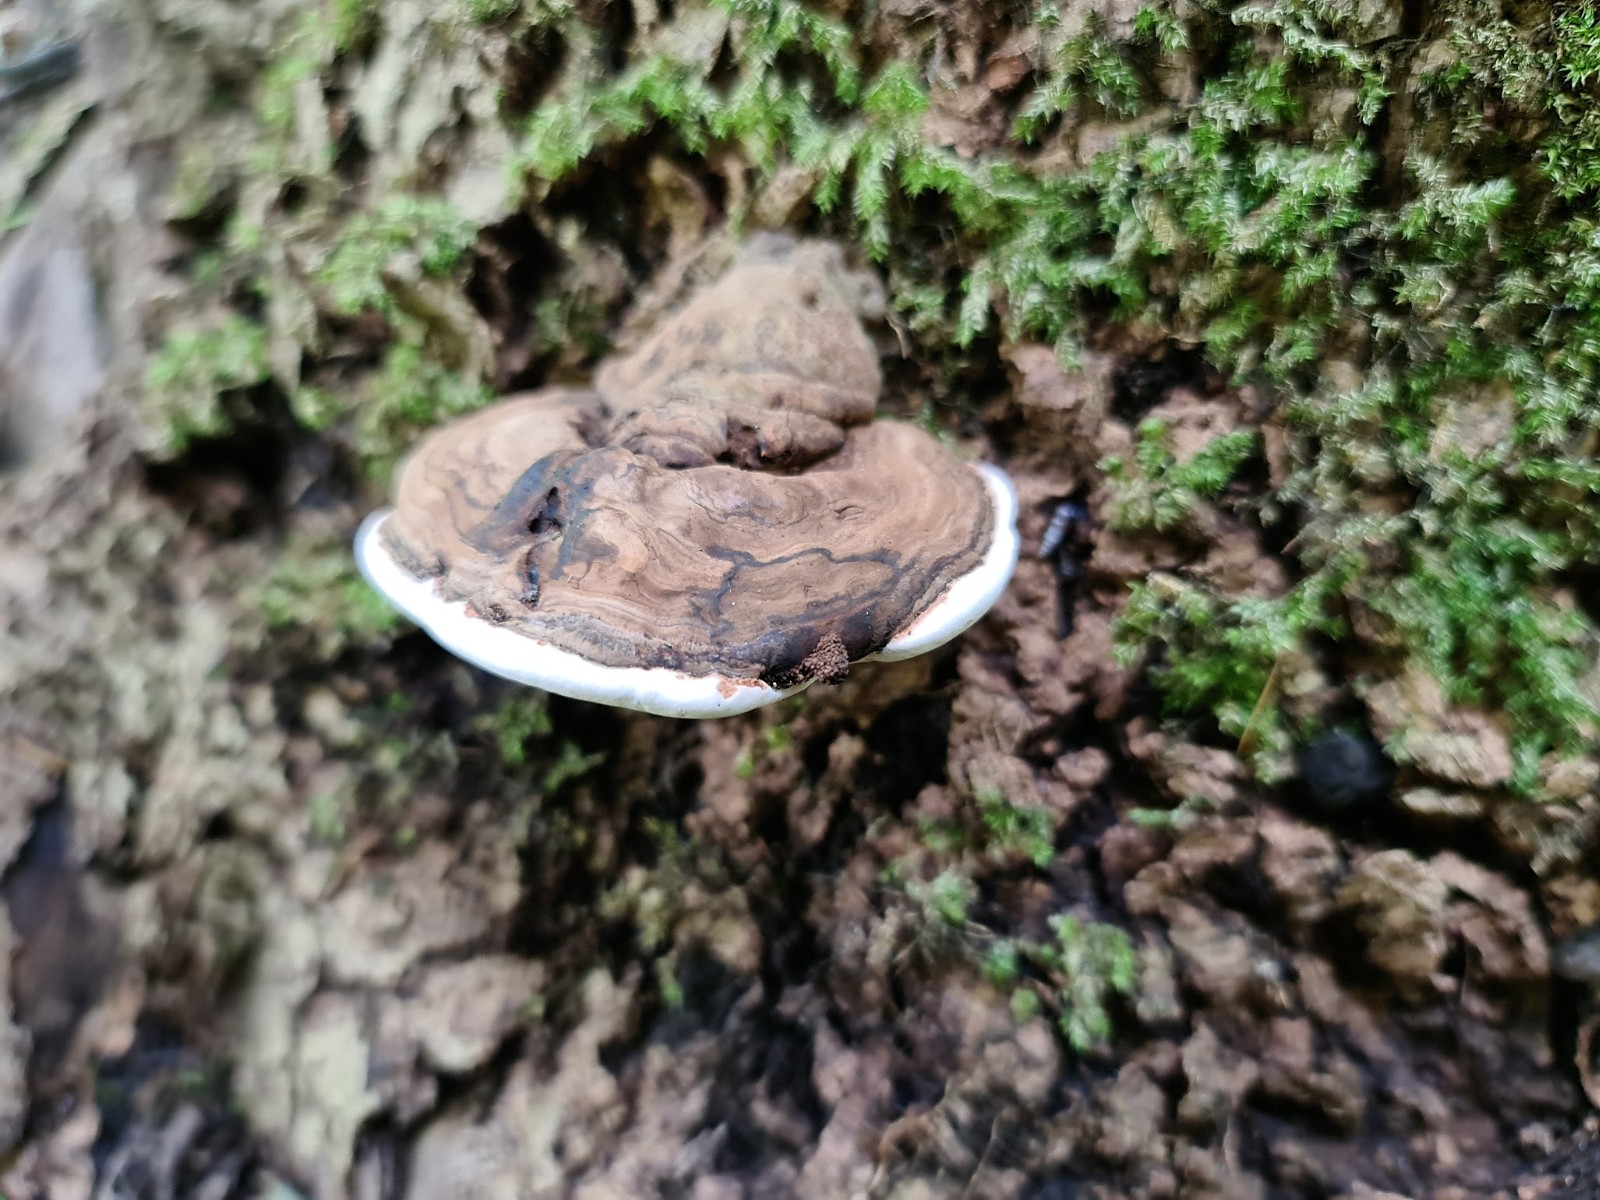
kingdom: Fungi
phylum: Basidiomycota
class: Agaricomycetes
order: Polyporales
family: Polyporaceae
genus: Ganoderma
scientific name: Ganoderma applanatum
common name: flad lakporesvamp
